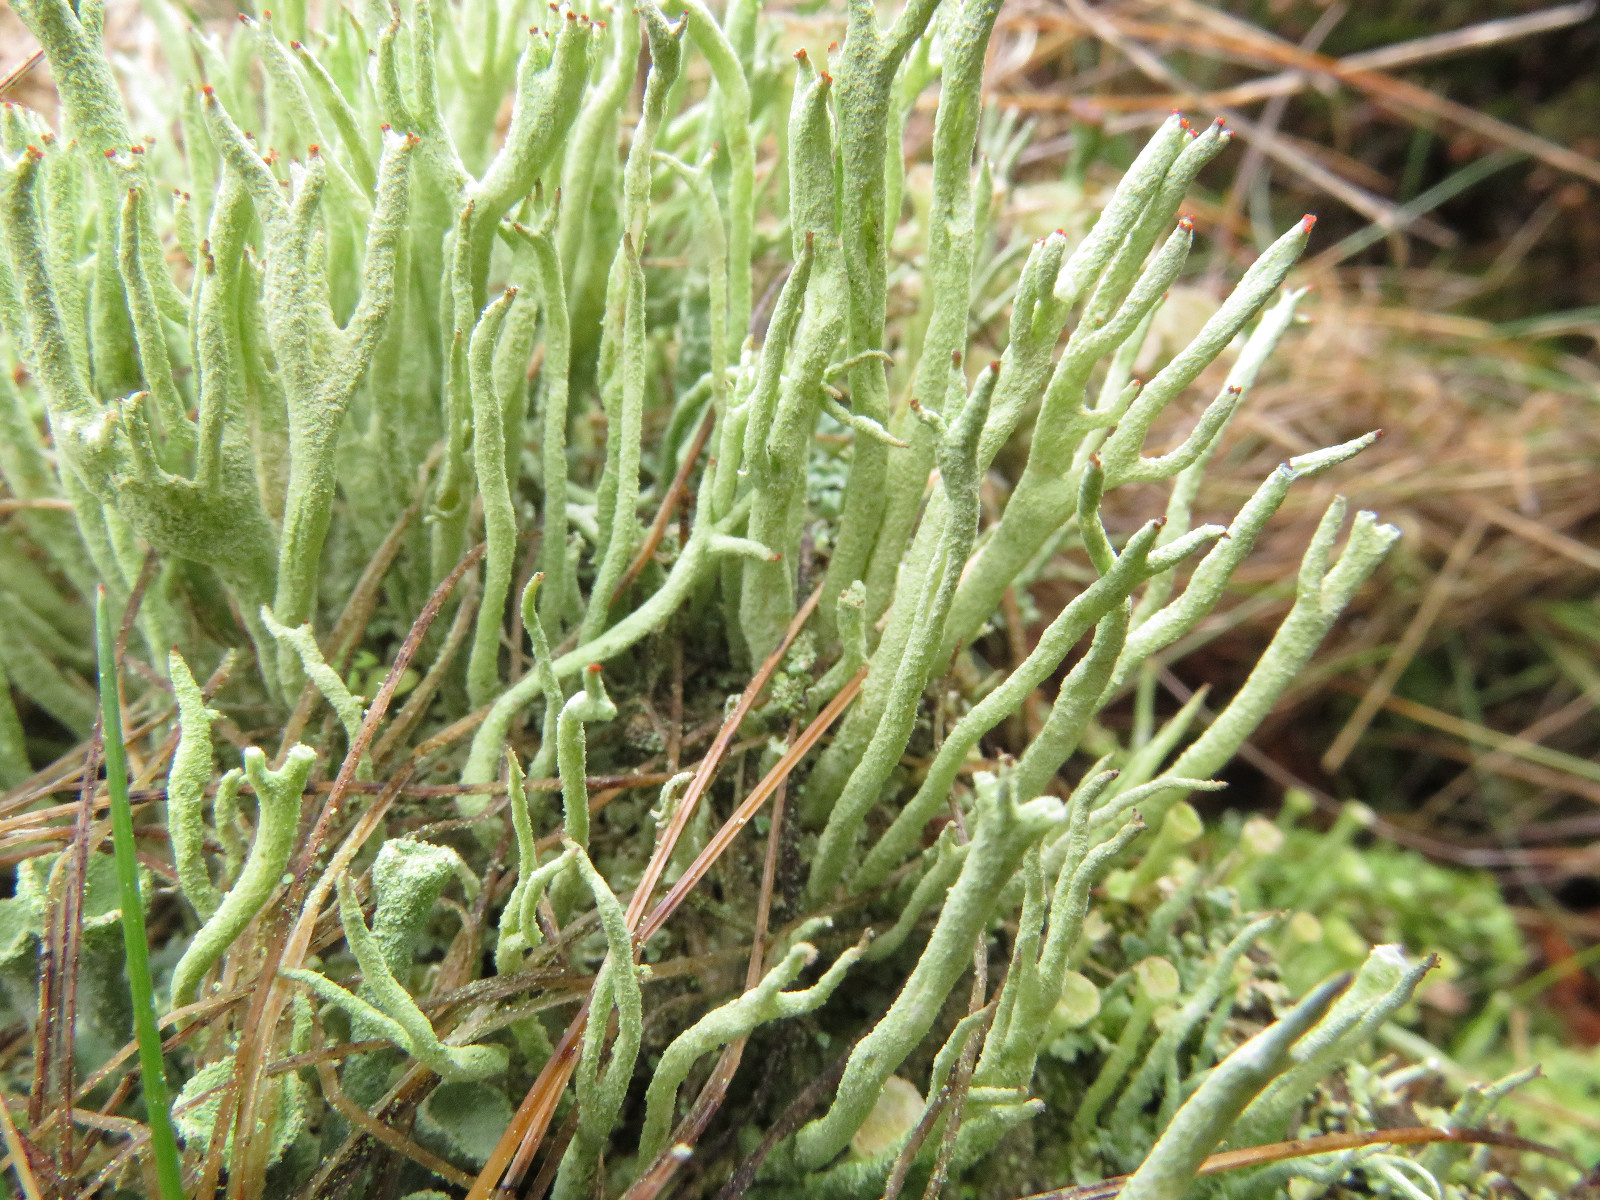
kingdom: Fungi
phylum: Ascomycota
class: Lecanoromycetes
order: Lecanorales
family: Cladoniaceae
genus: Cladonia
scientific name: Cladonia macilenta
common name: indsvunden bægerlav
